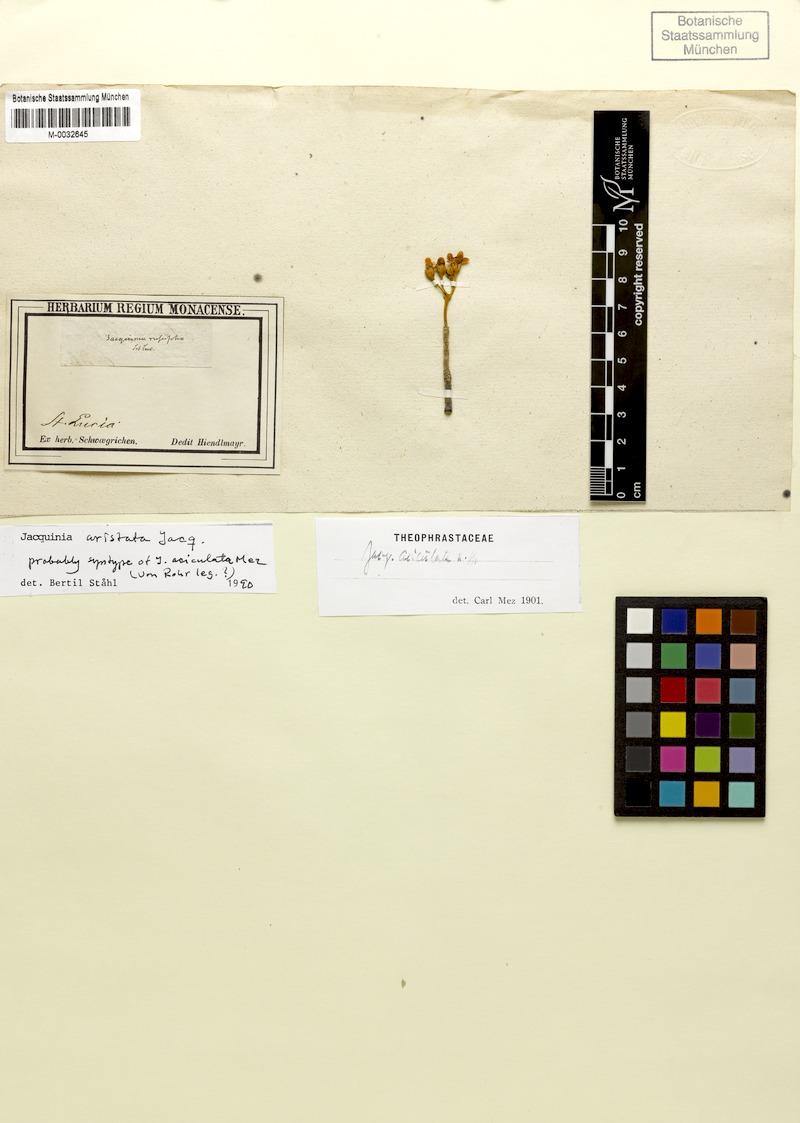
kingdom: Plantae
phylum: Tracheophyta
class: Magnoliopsida
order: Ericales
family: Primulaceae
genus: Bonellia
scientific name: Bonellia frutescens
